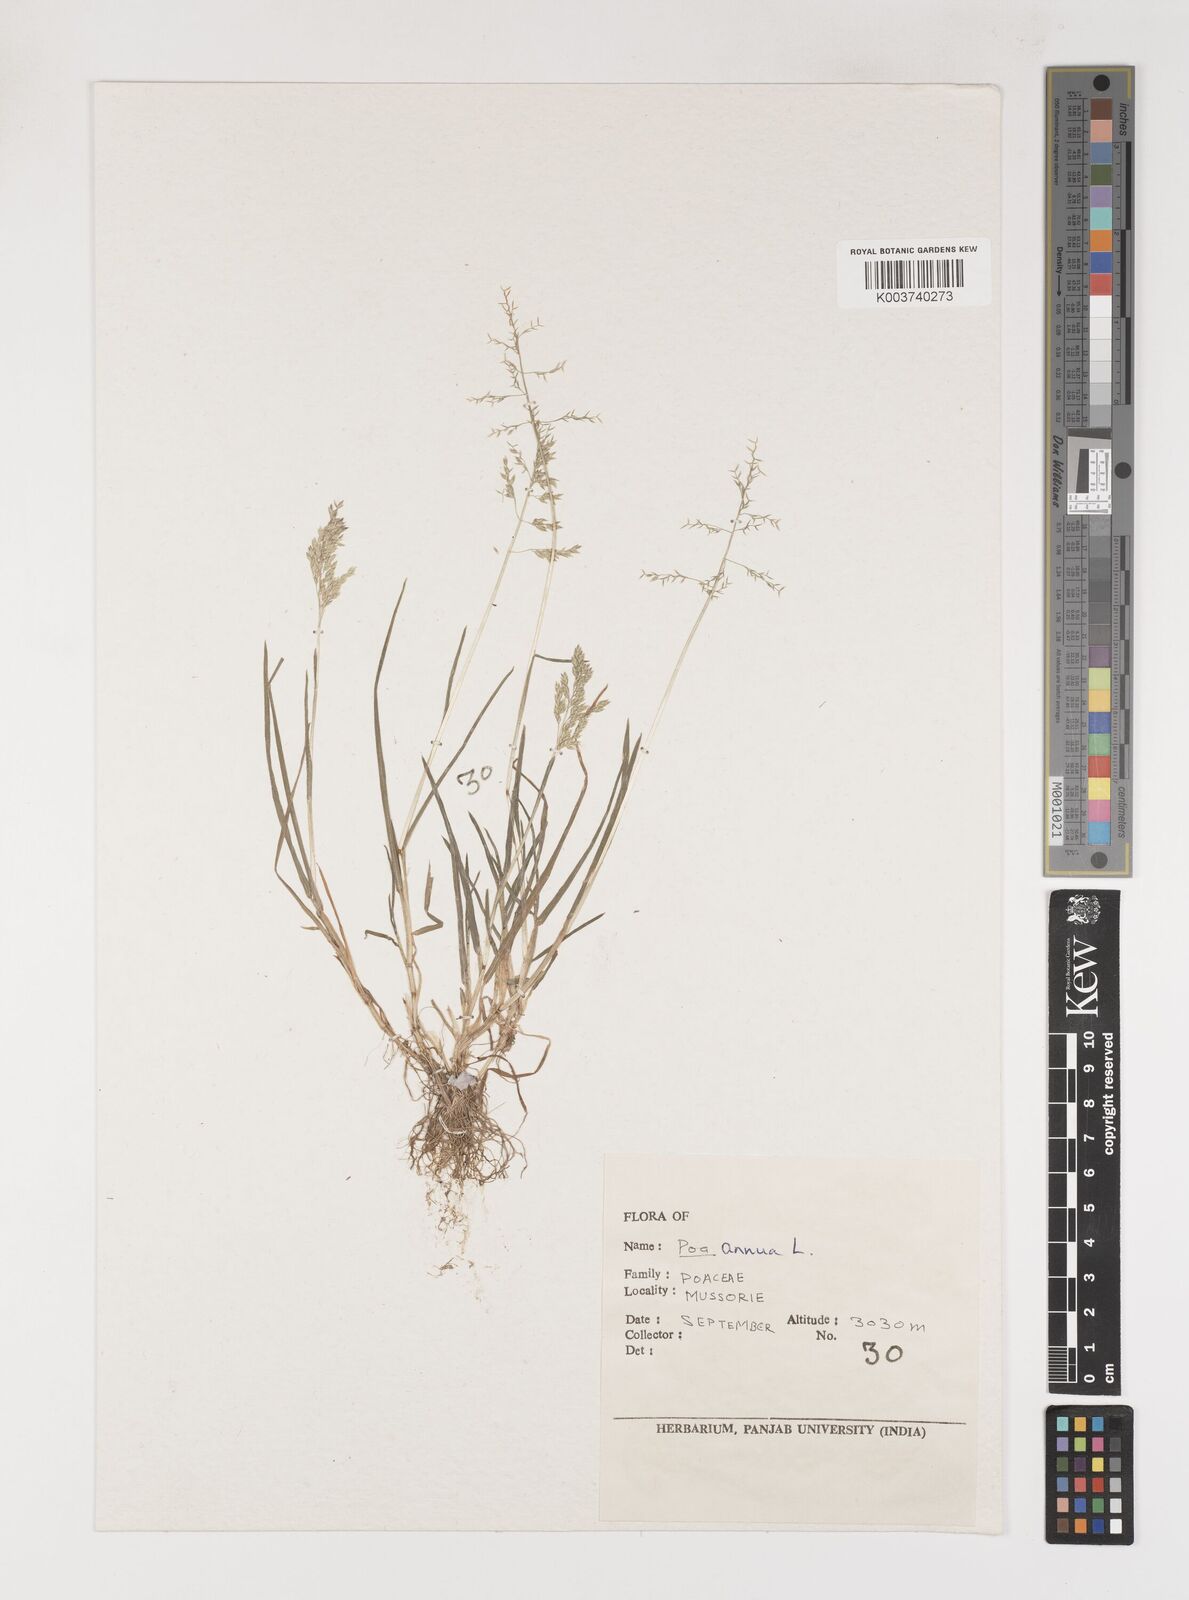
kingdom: Plantae
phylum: Tracheophyta
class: Liliopsida
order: Poales
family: Poaceae
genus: Poa
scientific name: Poa annua
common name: Annual bluegrass
